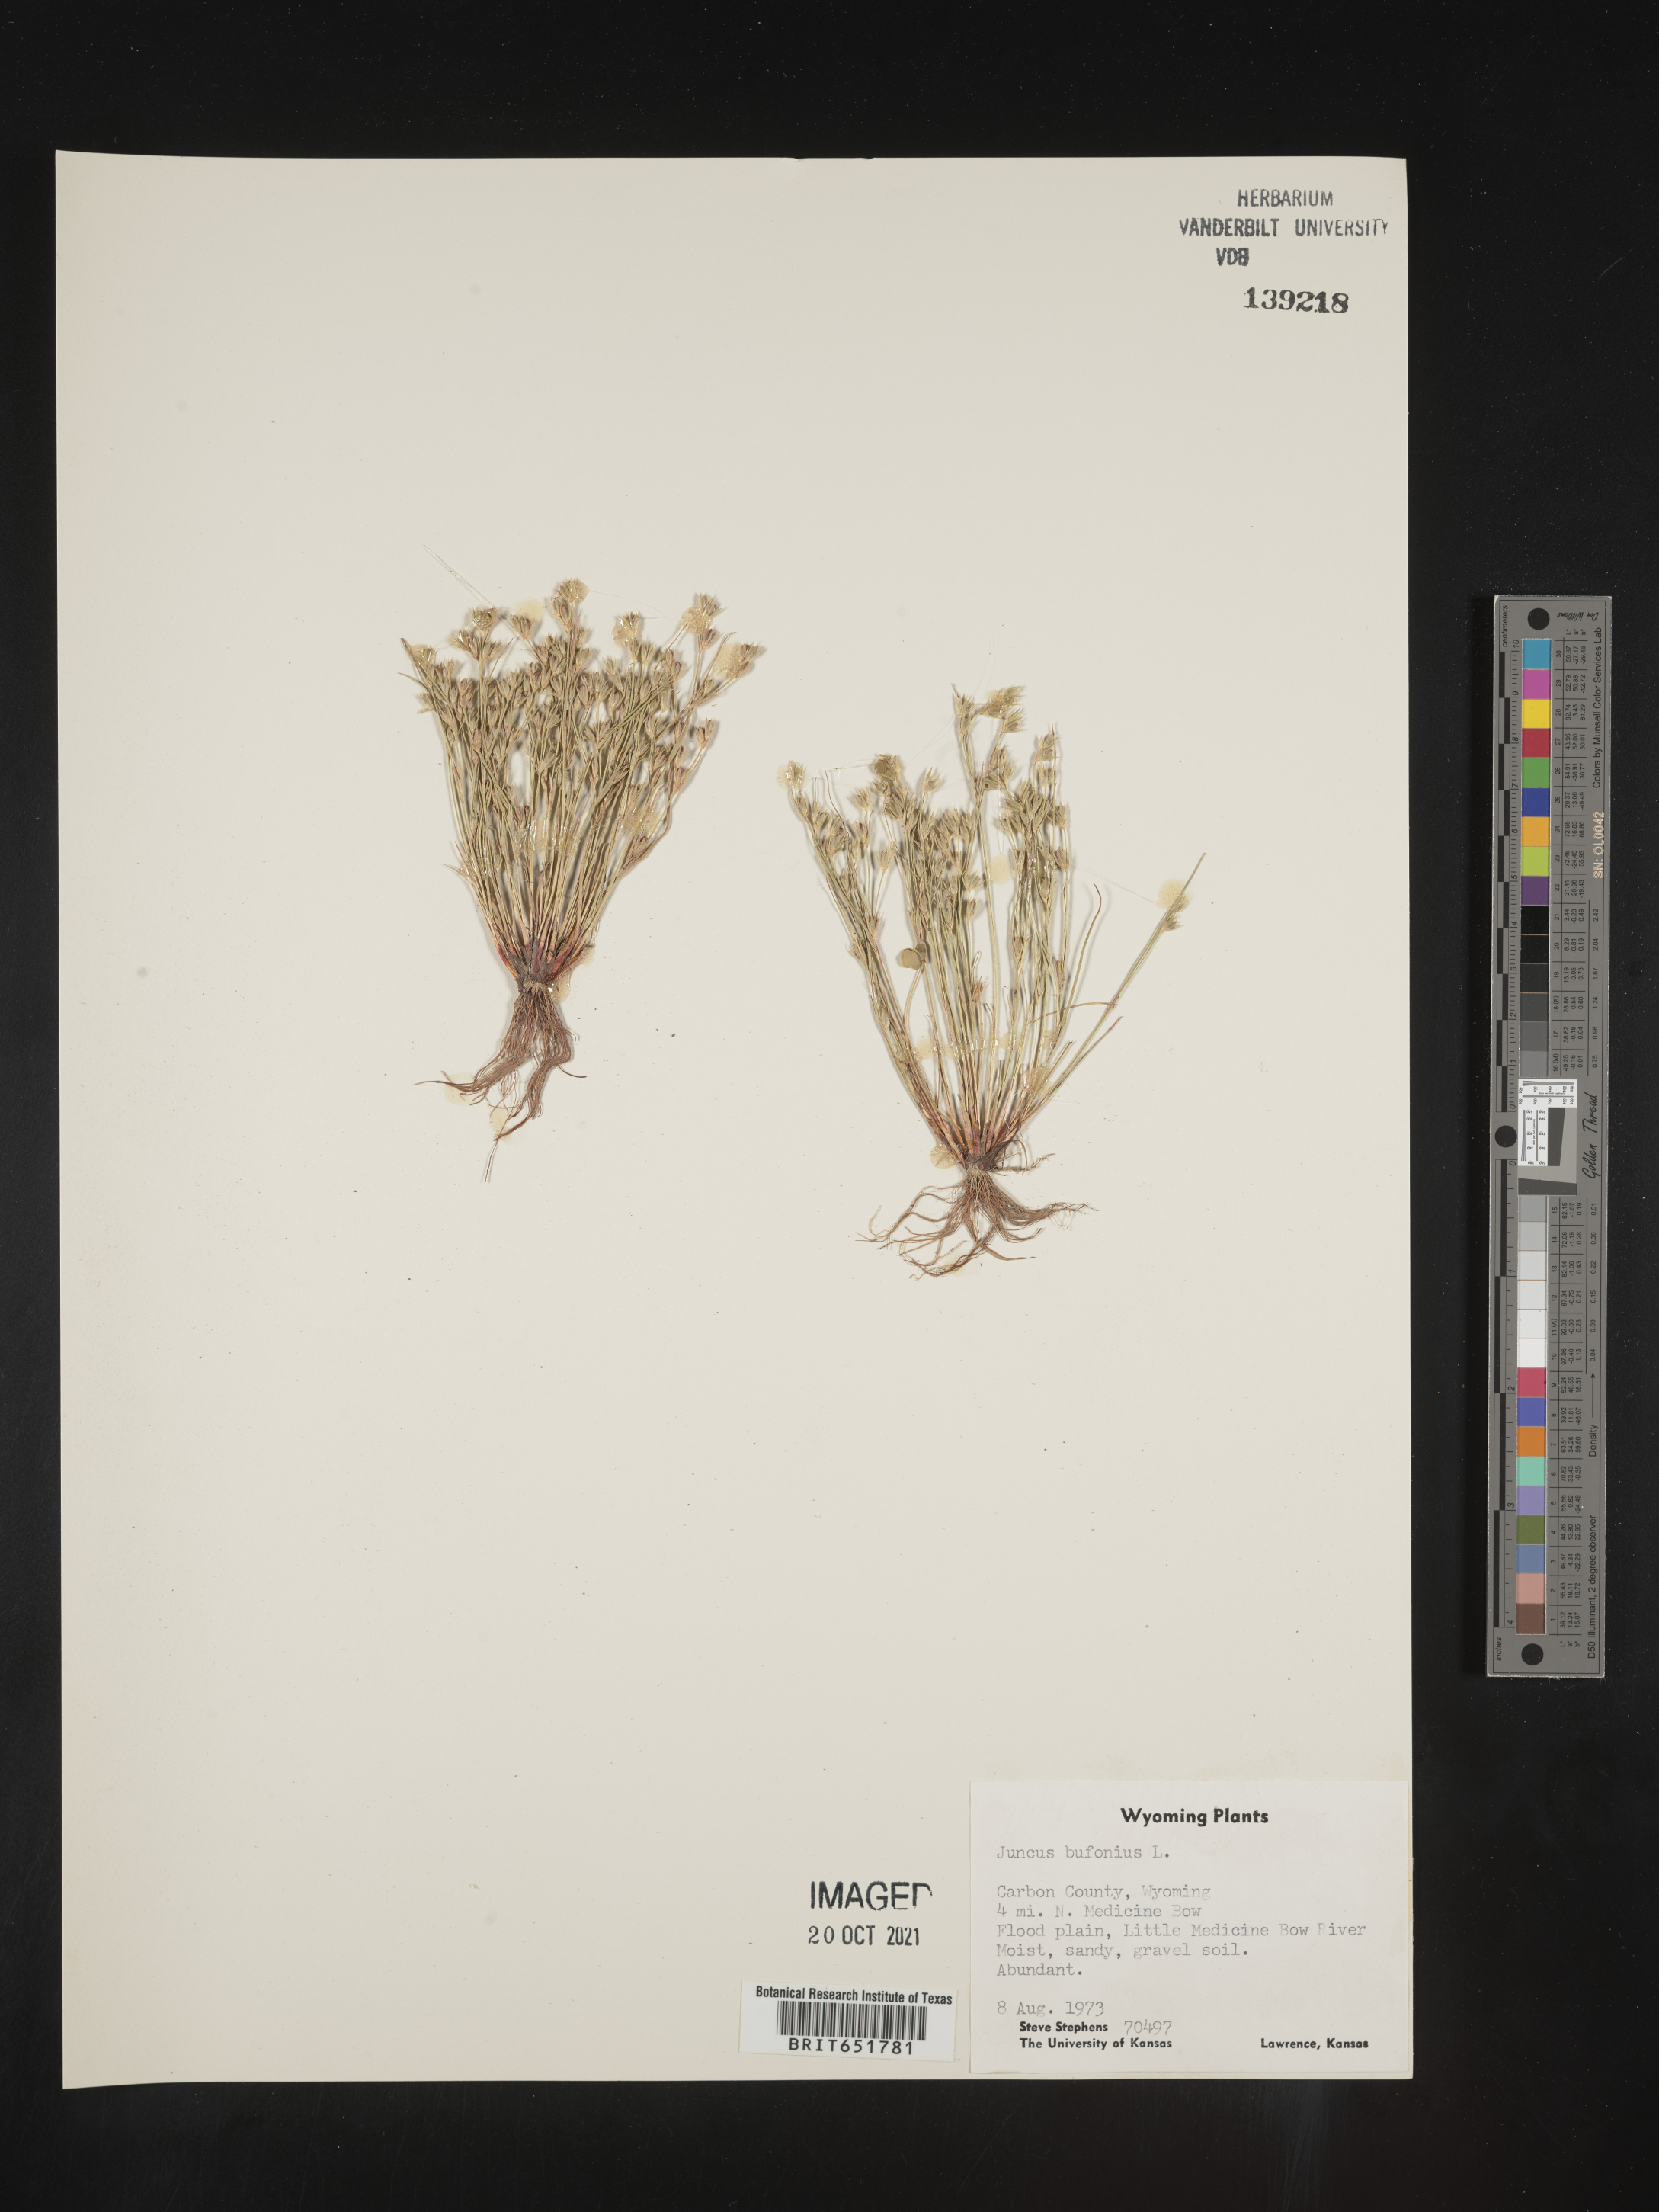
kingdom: Plantae
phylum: Tracheophyta
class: Liliopsida
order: Poales
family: Juncaceae
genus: Juncus
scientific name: Juncus bufonius
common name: Toad rush
